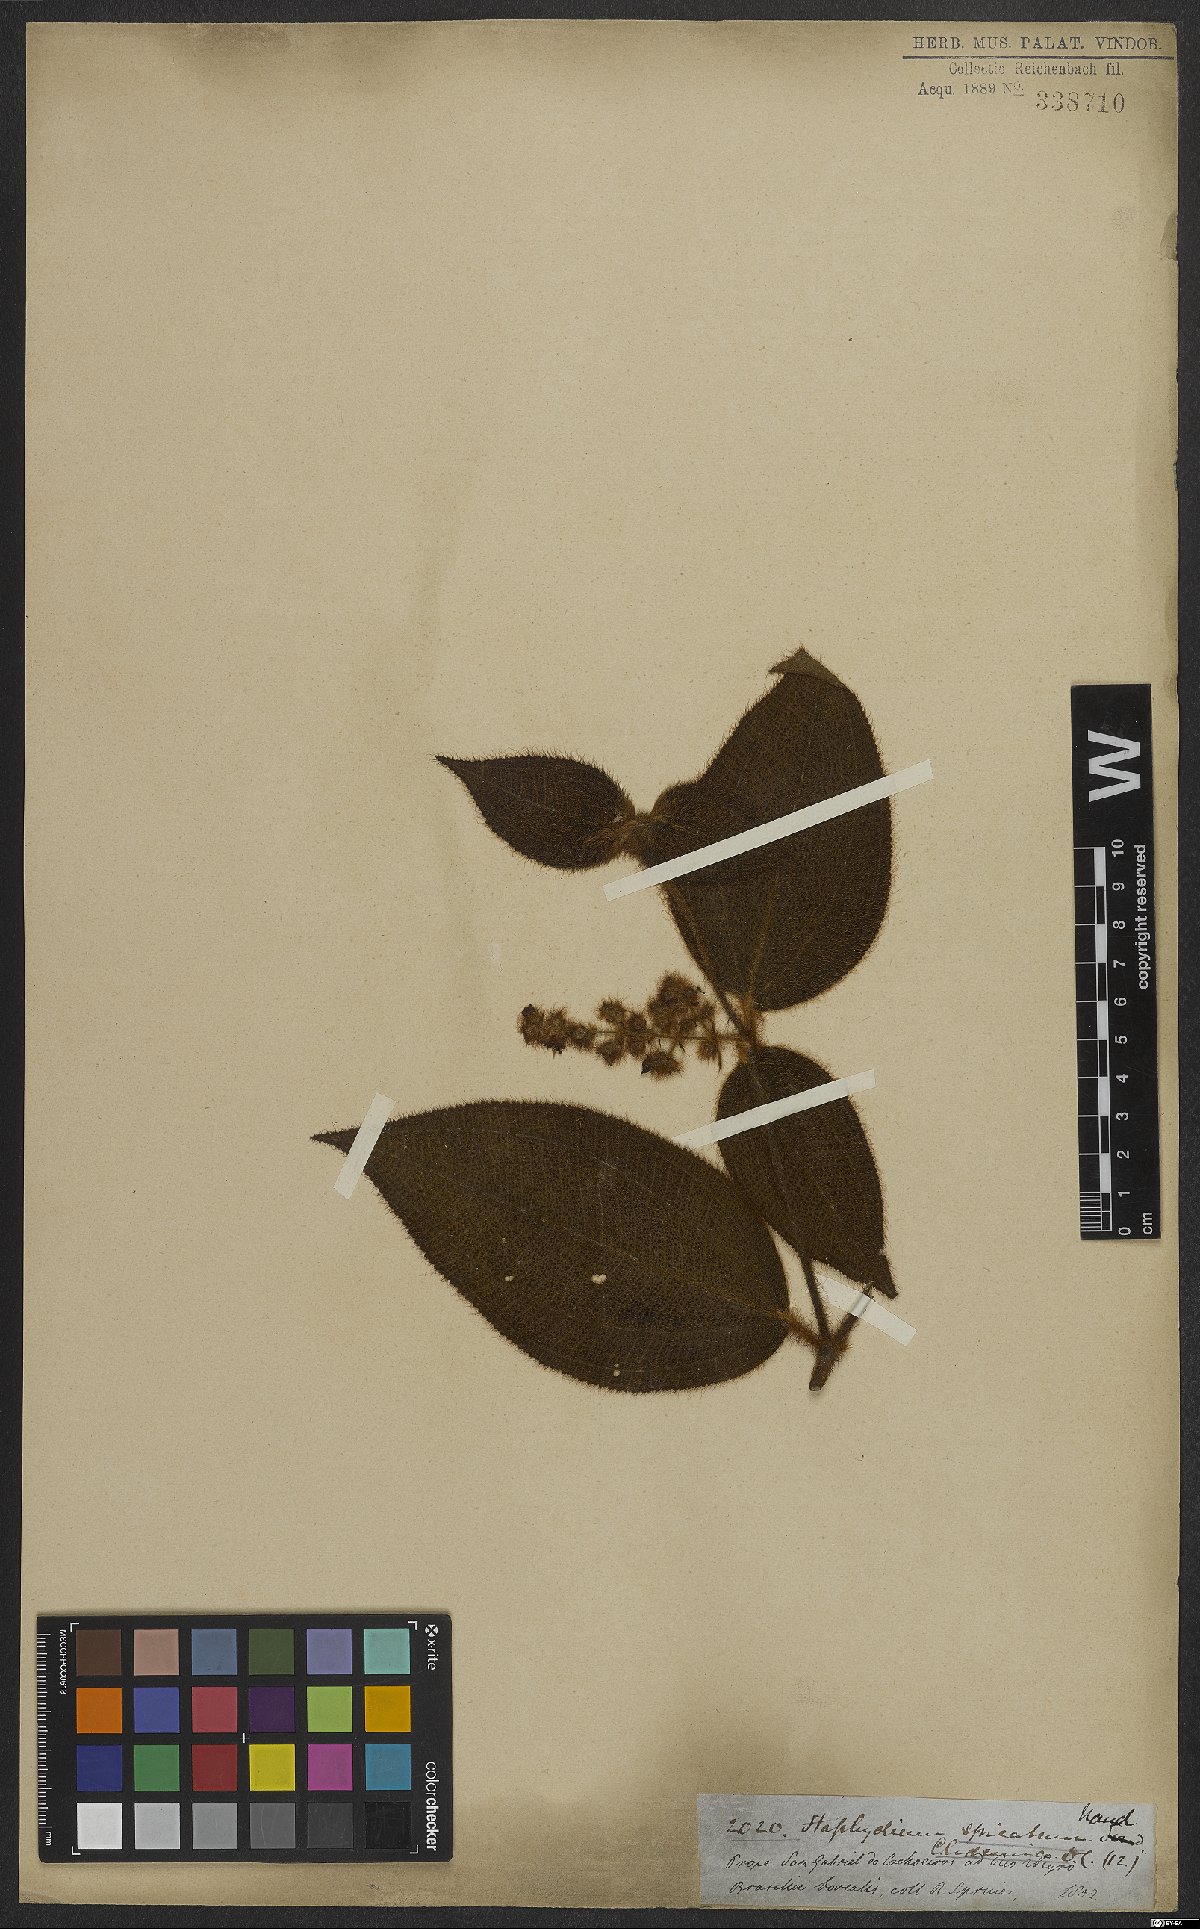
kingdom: Plantae
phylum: Tracheophyta
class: Magnoliopsida
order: Myrtales
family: Melastomataceae
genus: Miconia
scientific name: Miconia dependens
